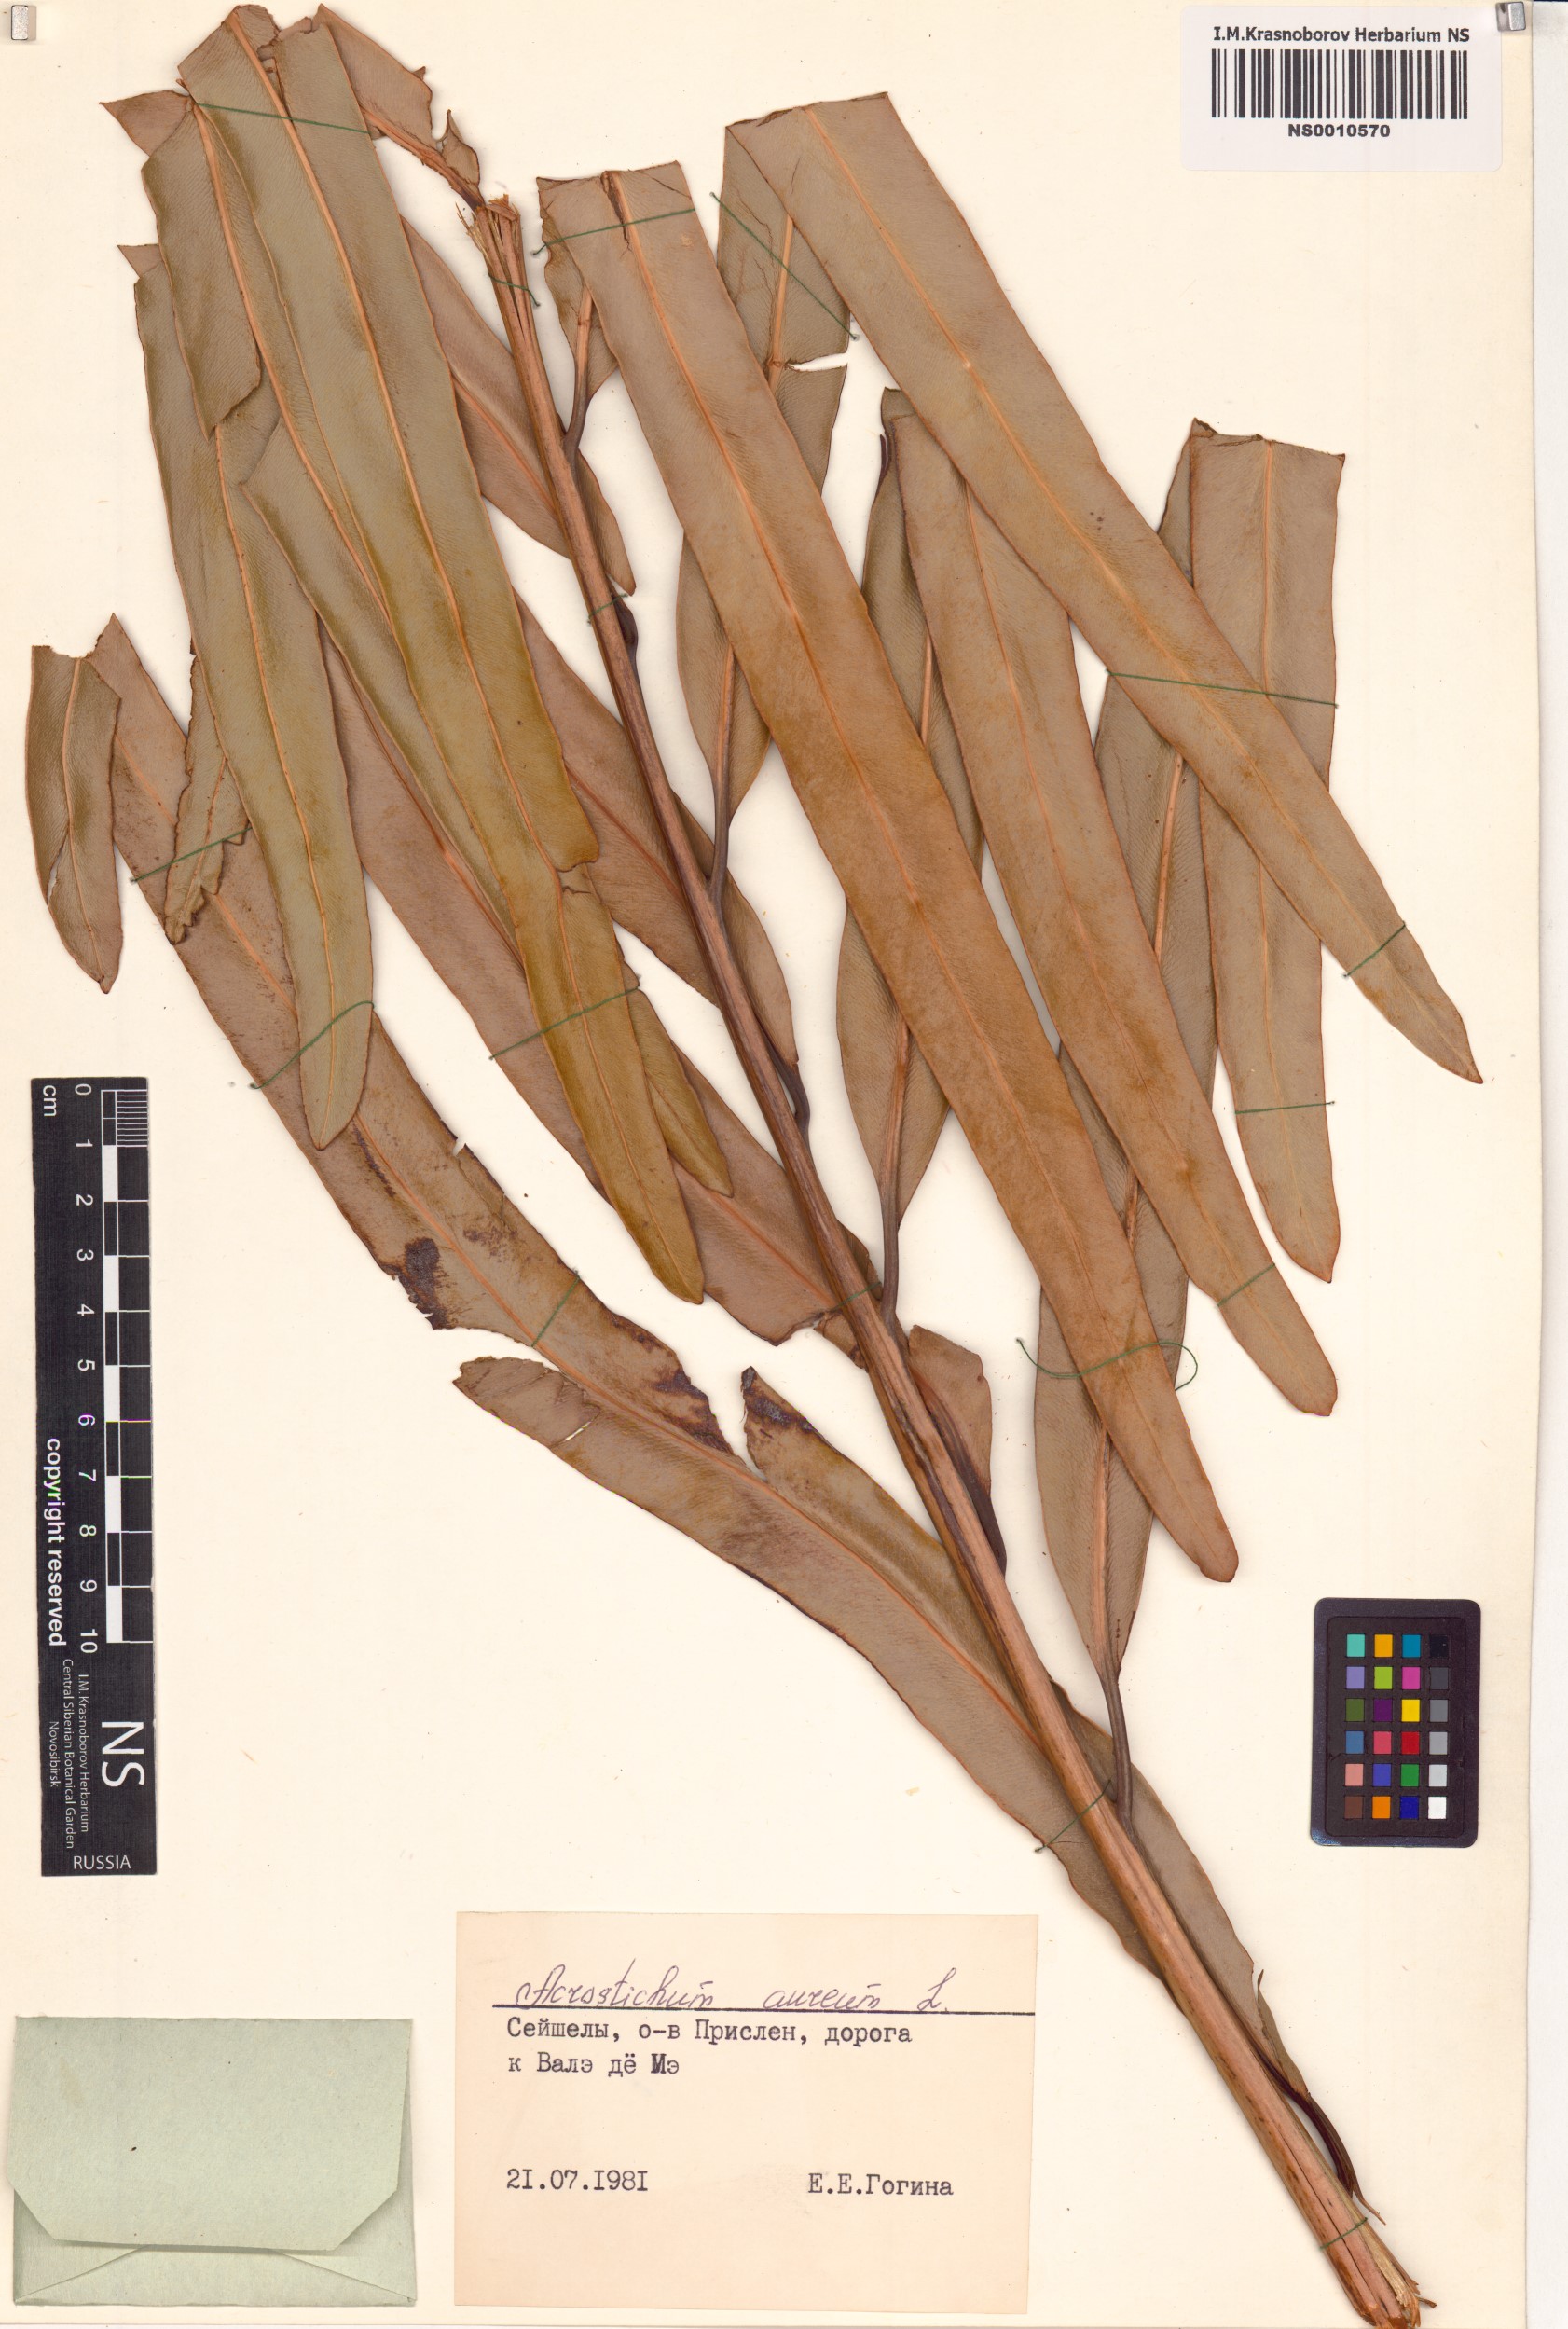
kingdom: Plantae
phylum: Tracheophyta
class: Polypodiopsida
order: Polypodiales
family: Pteridaceae
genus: Acrostichum
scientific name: Acrostichum aureum
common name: Leather fern
